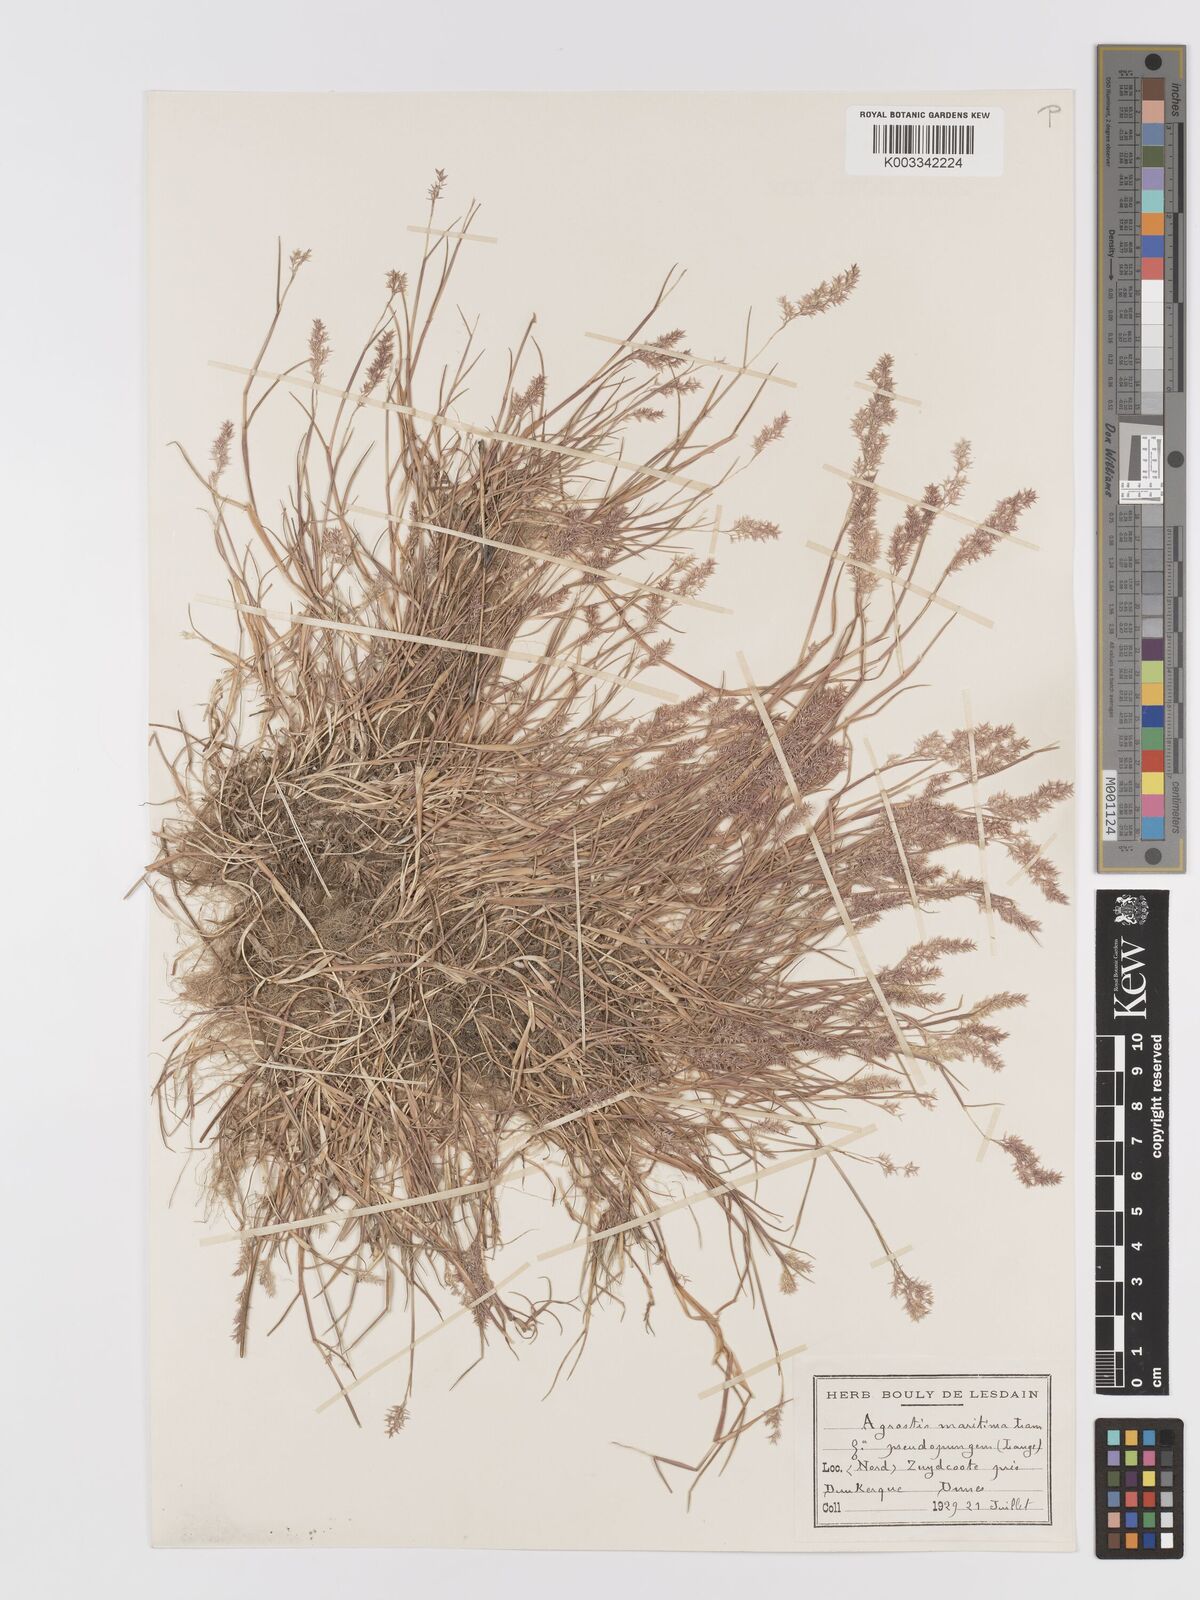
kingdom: Plantae
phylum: Tracheophyta
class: Liliopsida
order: Poales
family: Poaceae
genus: Agrostis
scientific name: Agrostis stolonifera
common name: Creeping bentgrass
